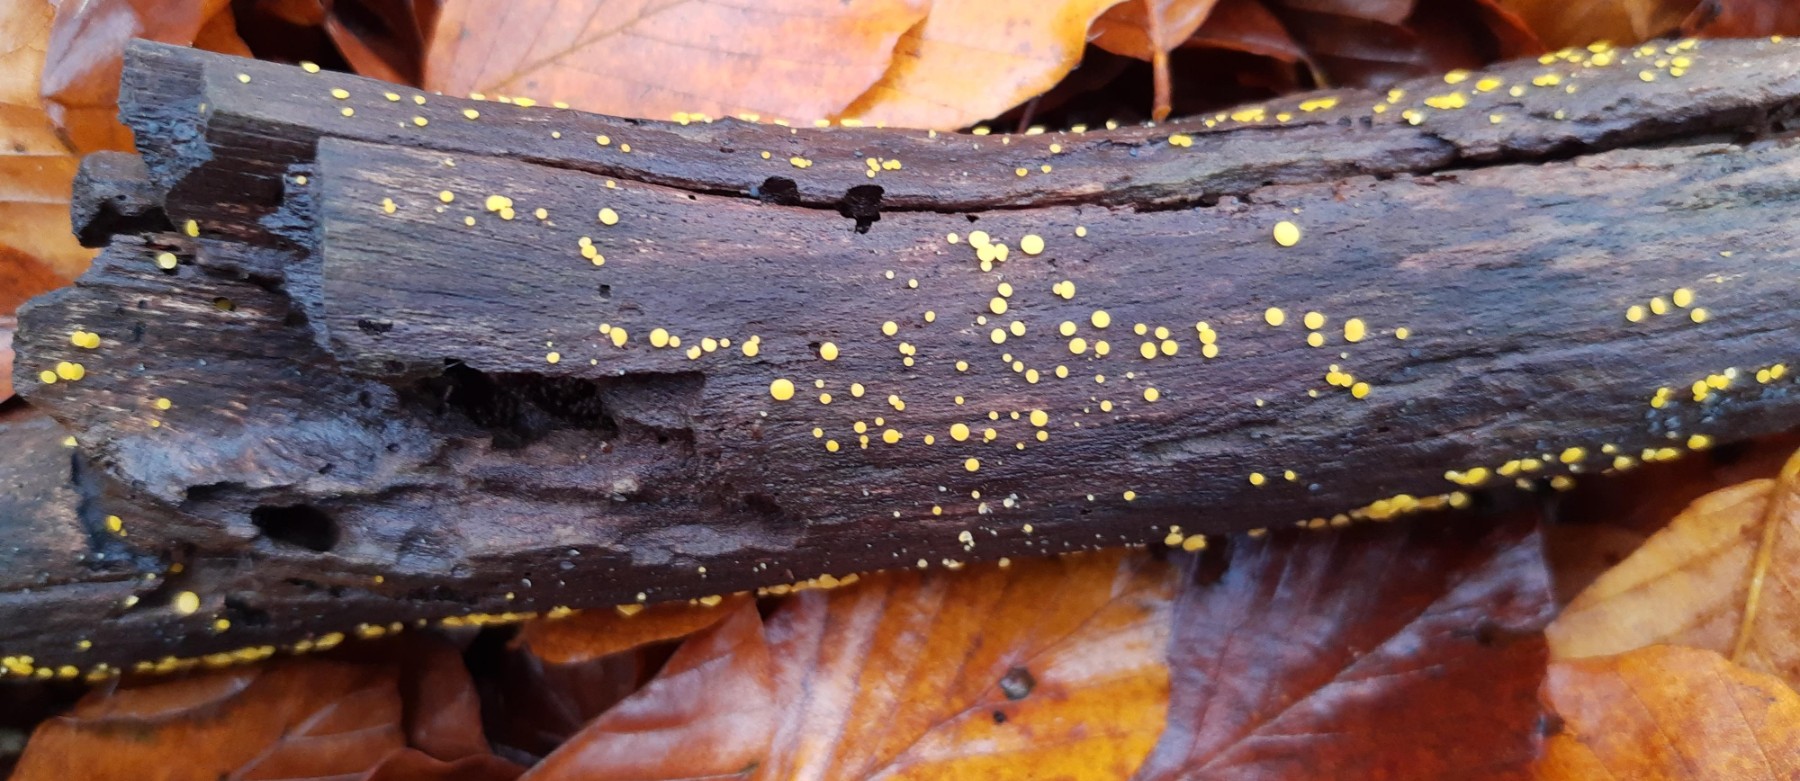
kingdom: Fungi
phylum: Ascomycota
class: Leotiomycetes
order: Helotiales
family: Pezizellaceae
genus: Calycina
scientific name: Calycina citrina
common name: almindelig gulskive
